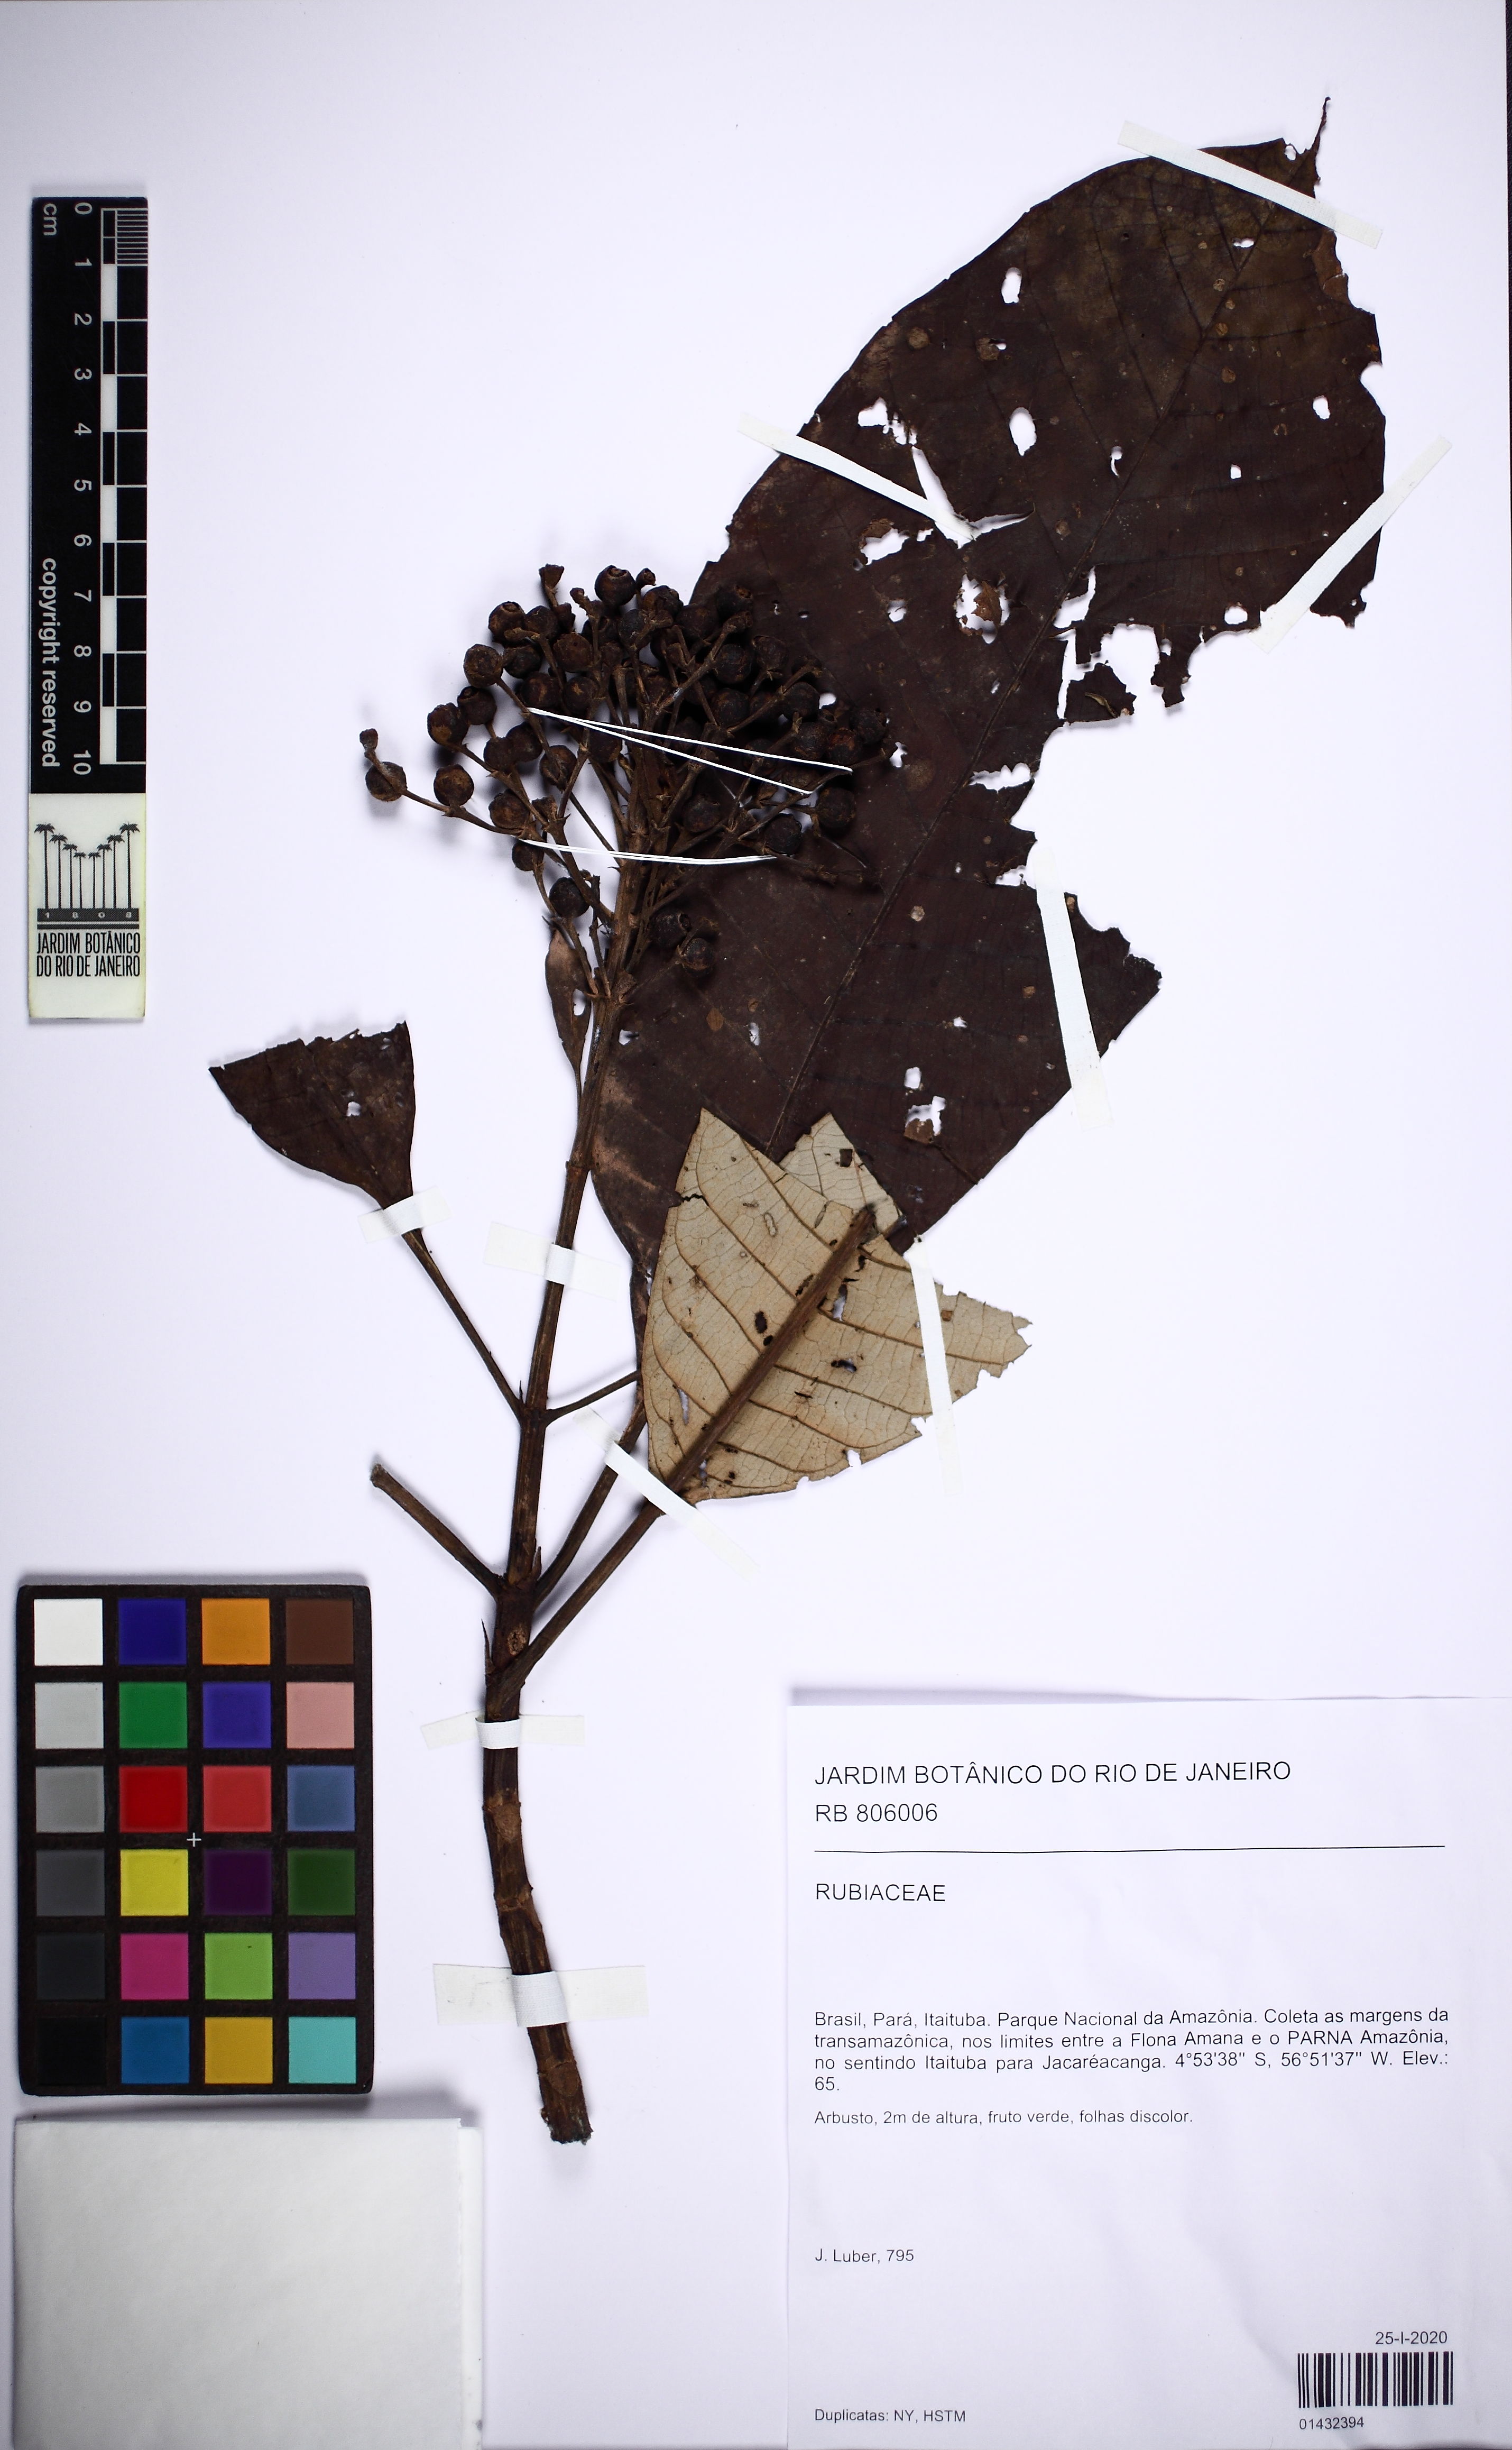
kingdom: Plantae
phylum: Tracheophyta
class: Magnoliopsida
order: Gentianales
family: Rubiaceae
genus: Isertia
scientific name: Isertia hypoleuca
